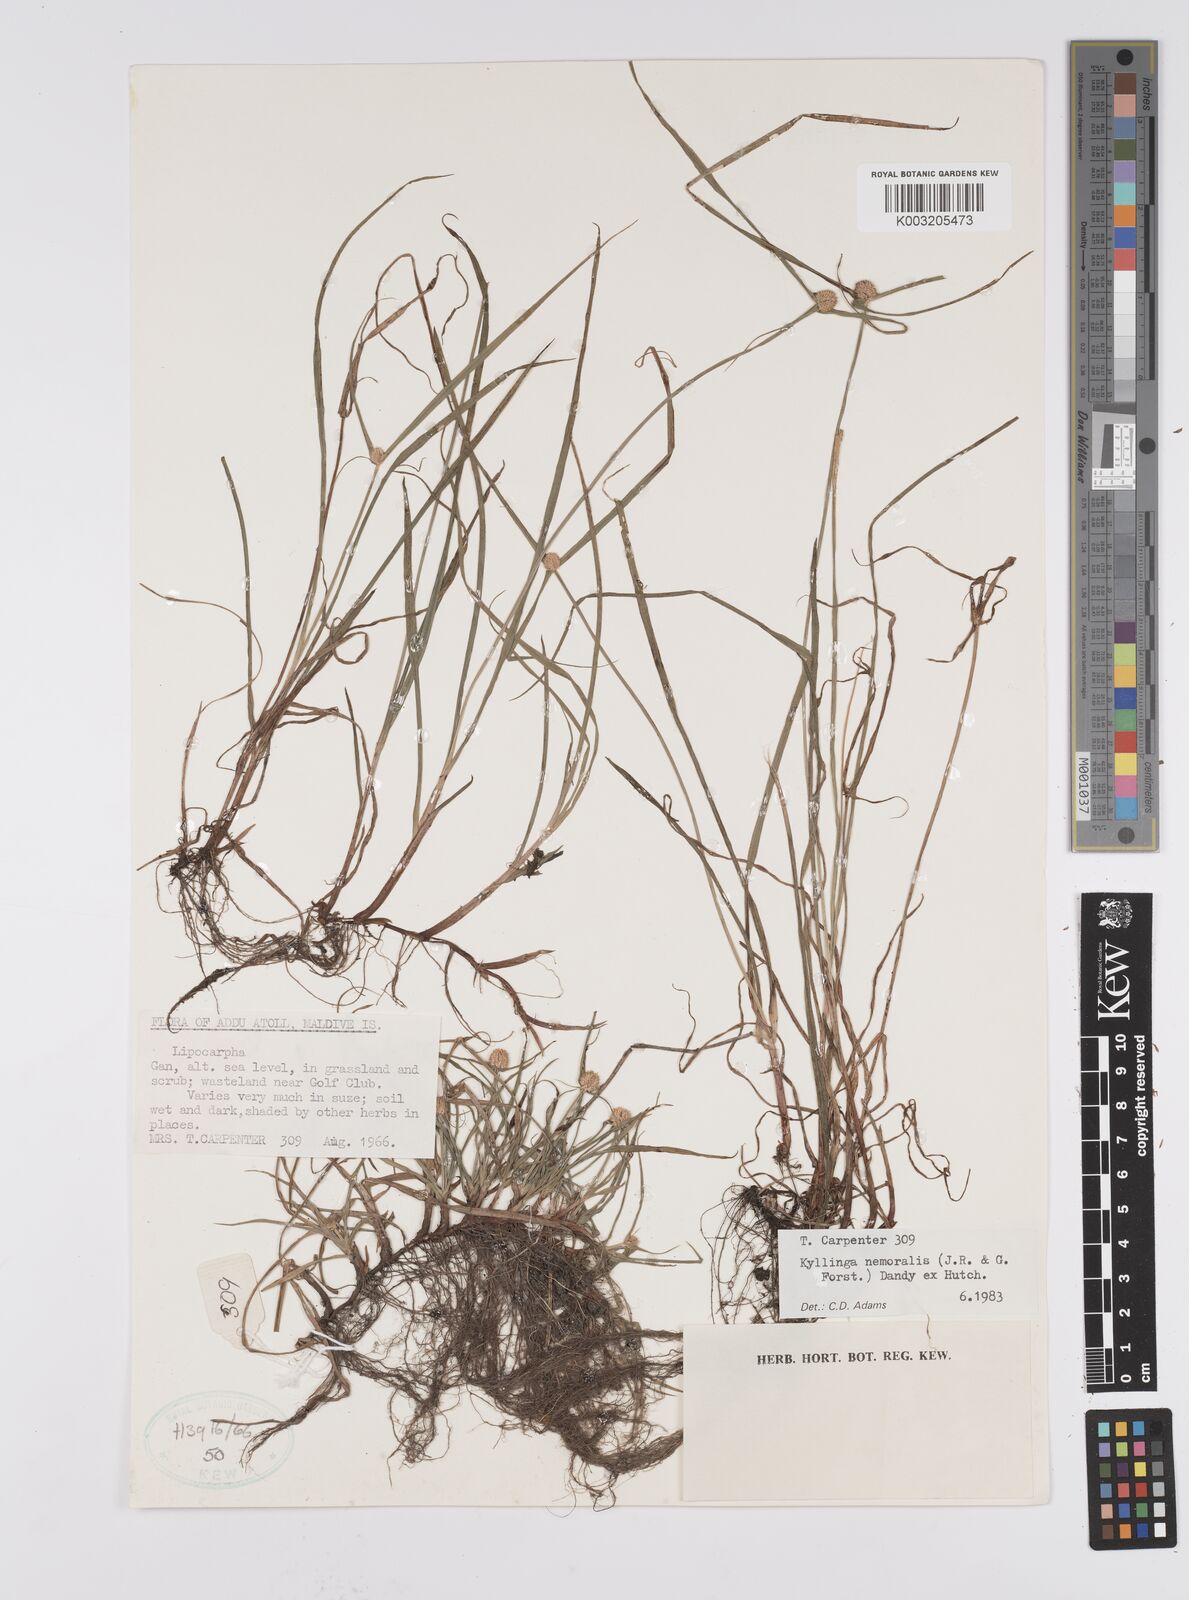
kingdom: Plantae
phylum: Tracheophyta
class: Liliopsida
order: Poales
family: Cyperaceae
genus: Cyperus
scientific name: Cyperus nemoralis
